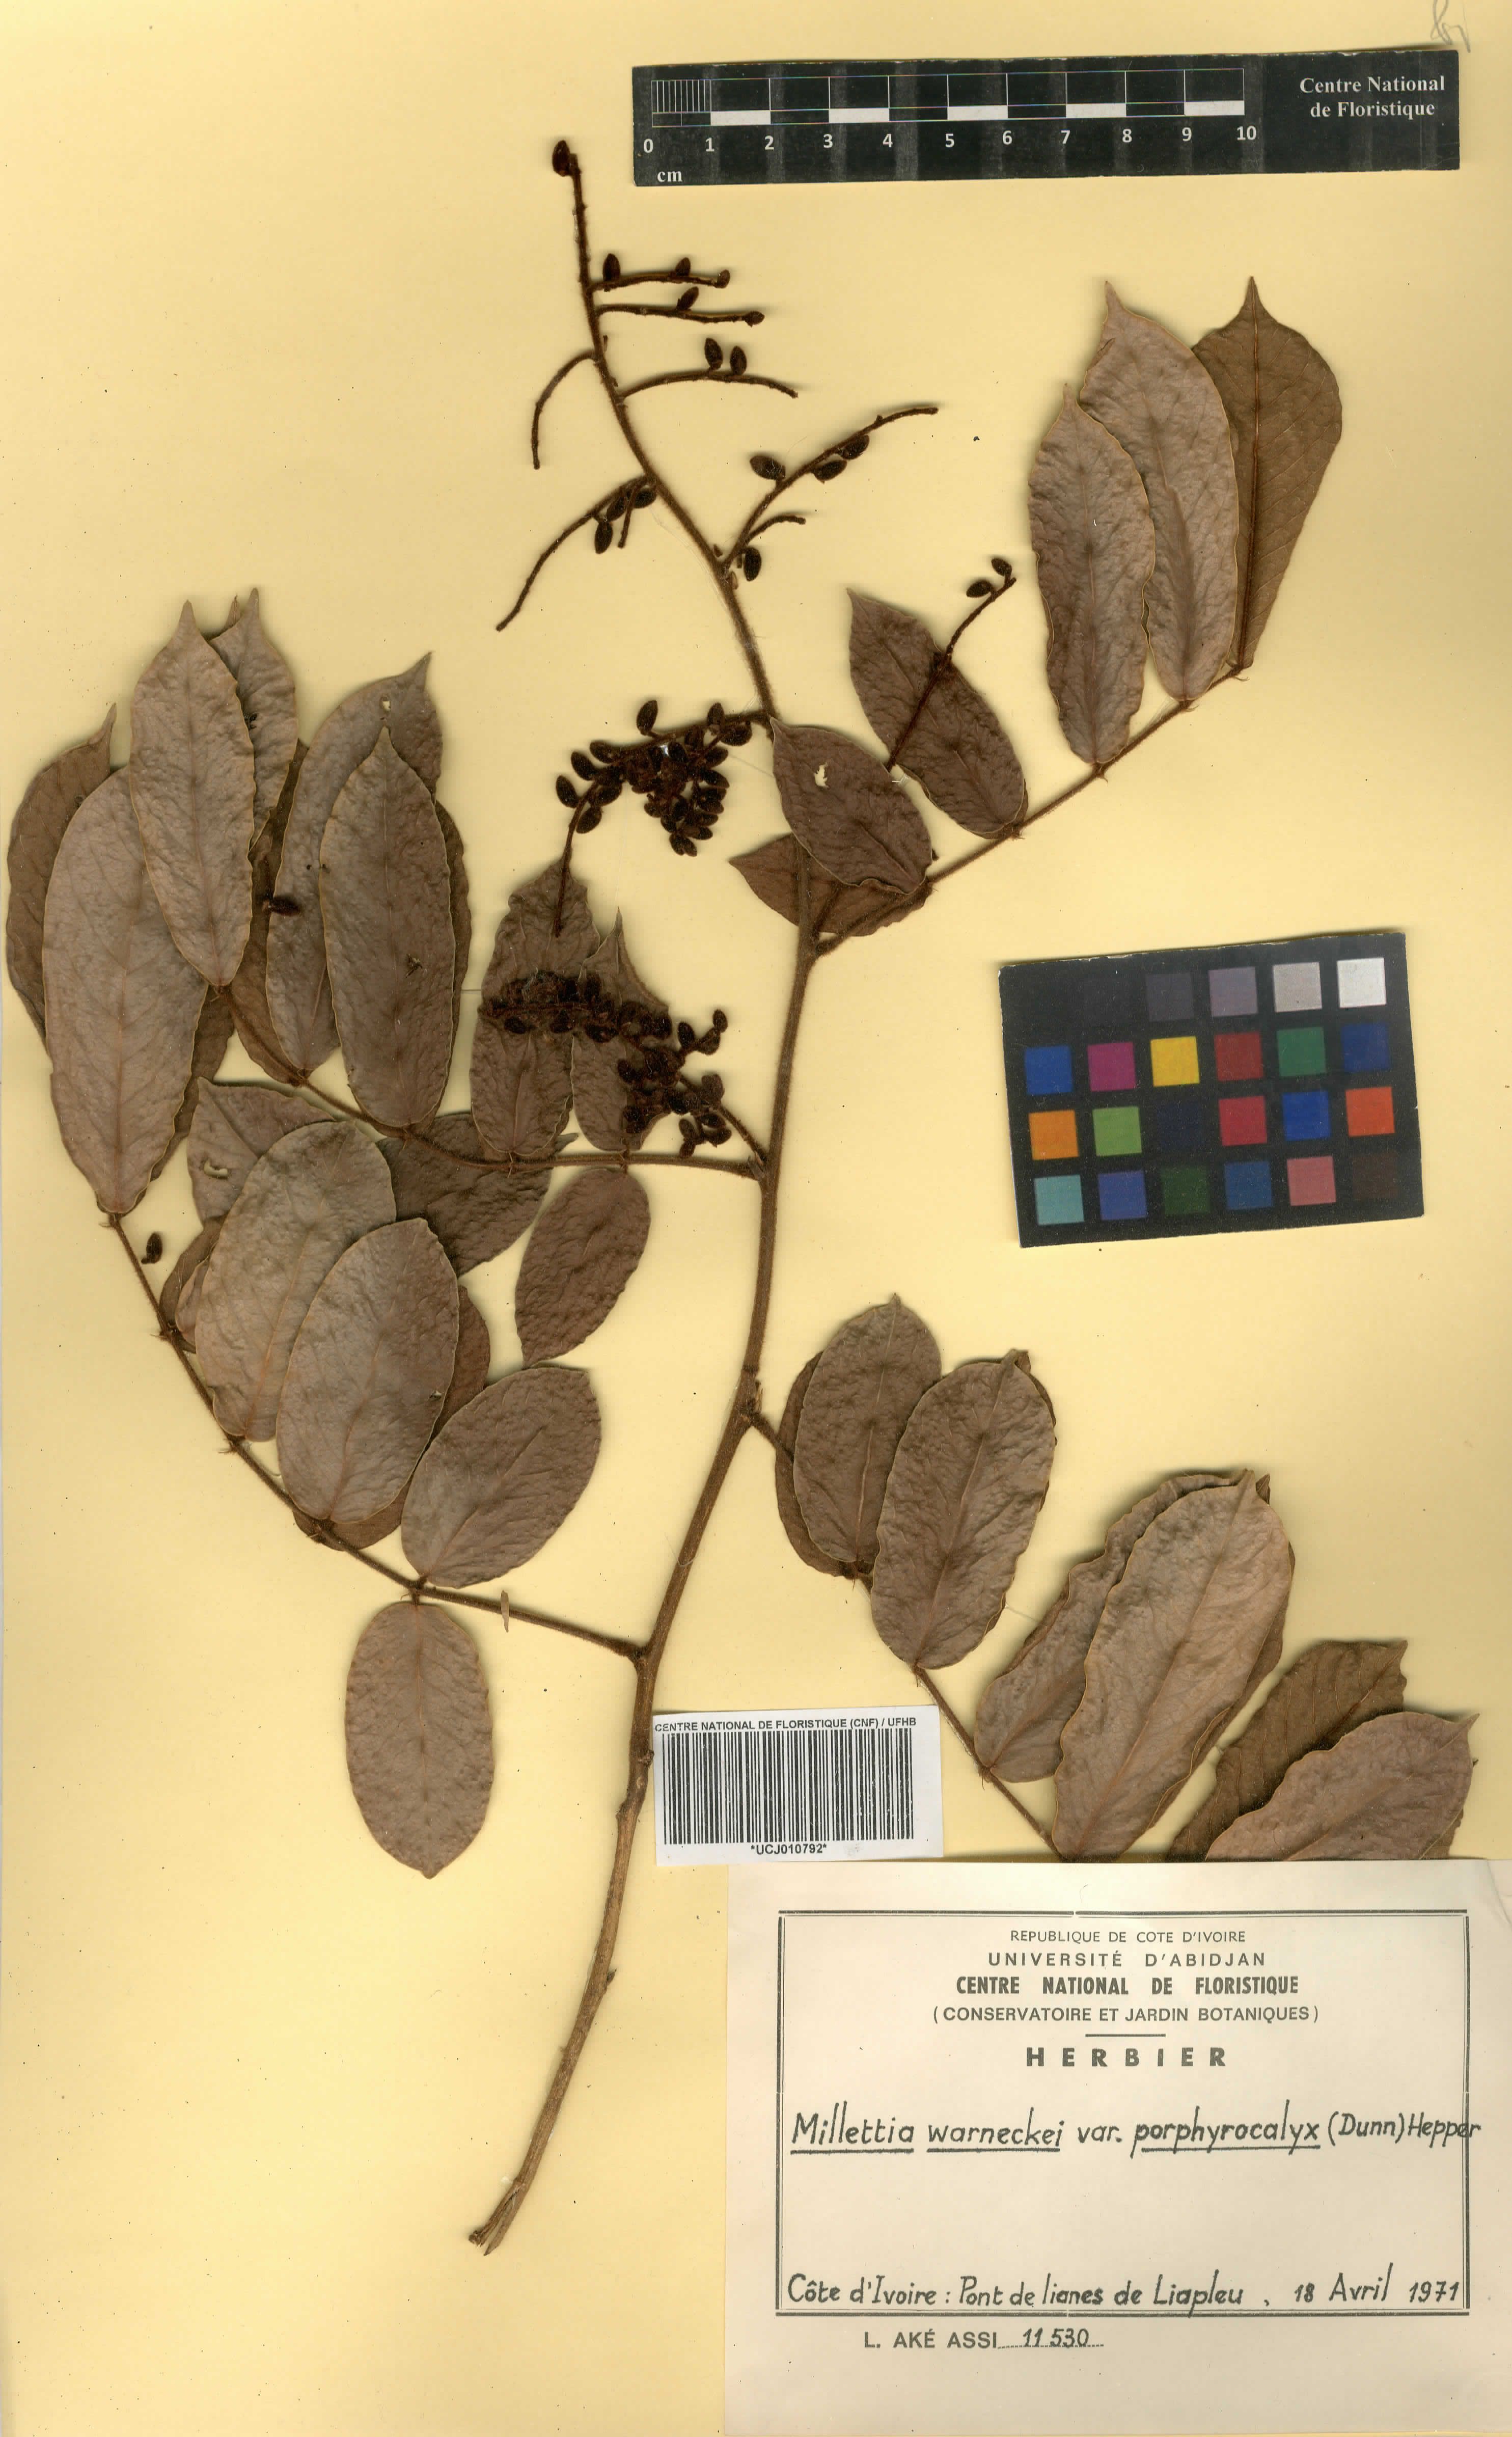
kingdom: Plantae
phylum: Tracheophyta
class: Magnoliopsida
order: Fabales
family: Fabaceae
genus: Millettia
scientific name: Millettia warneckei
